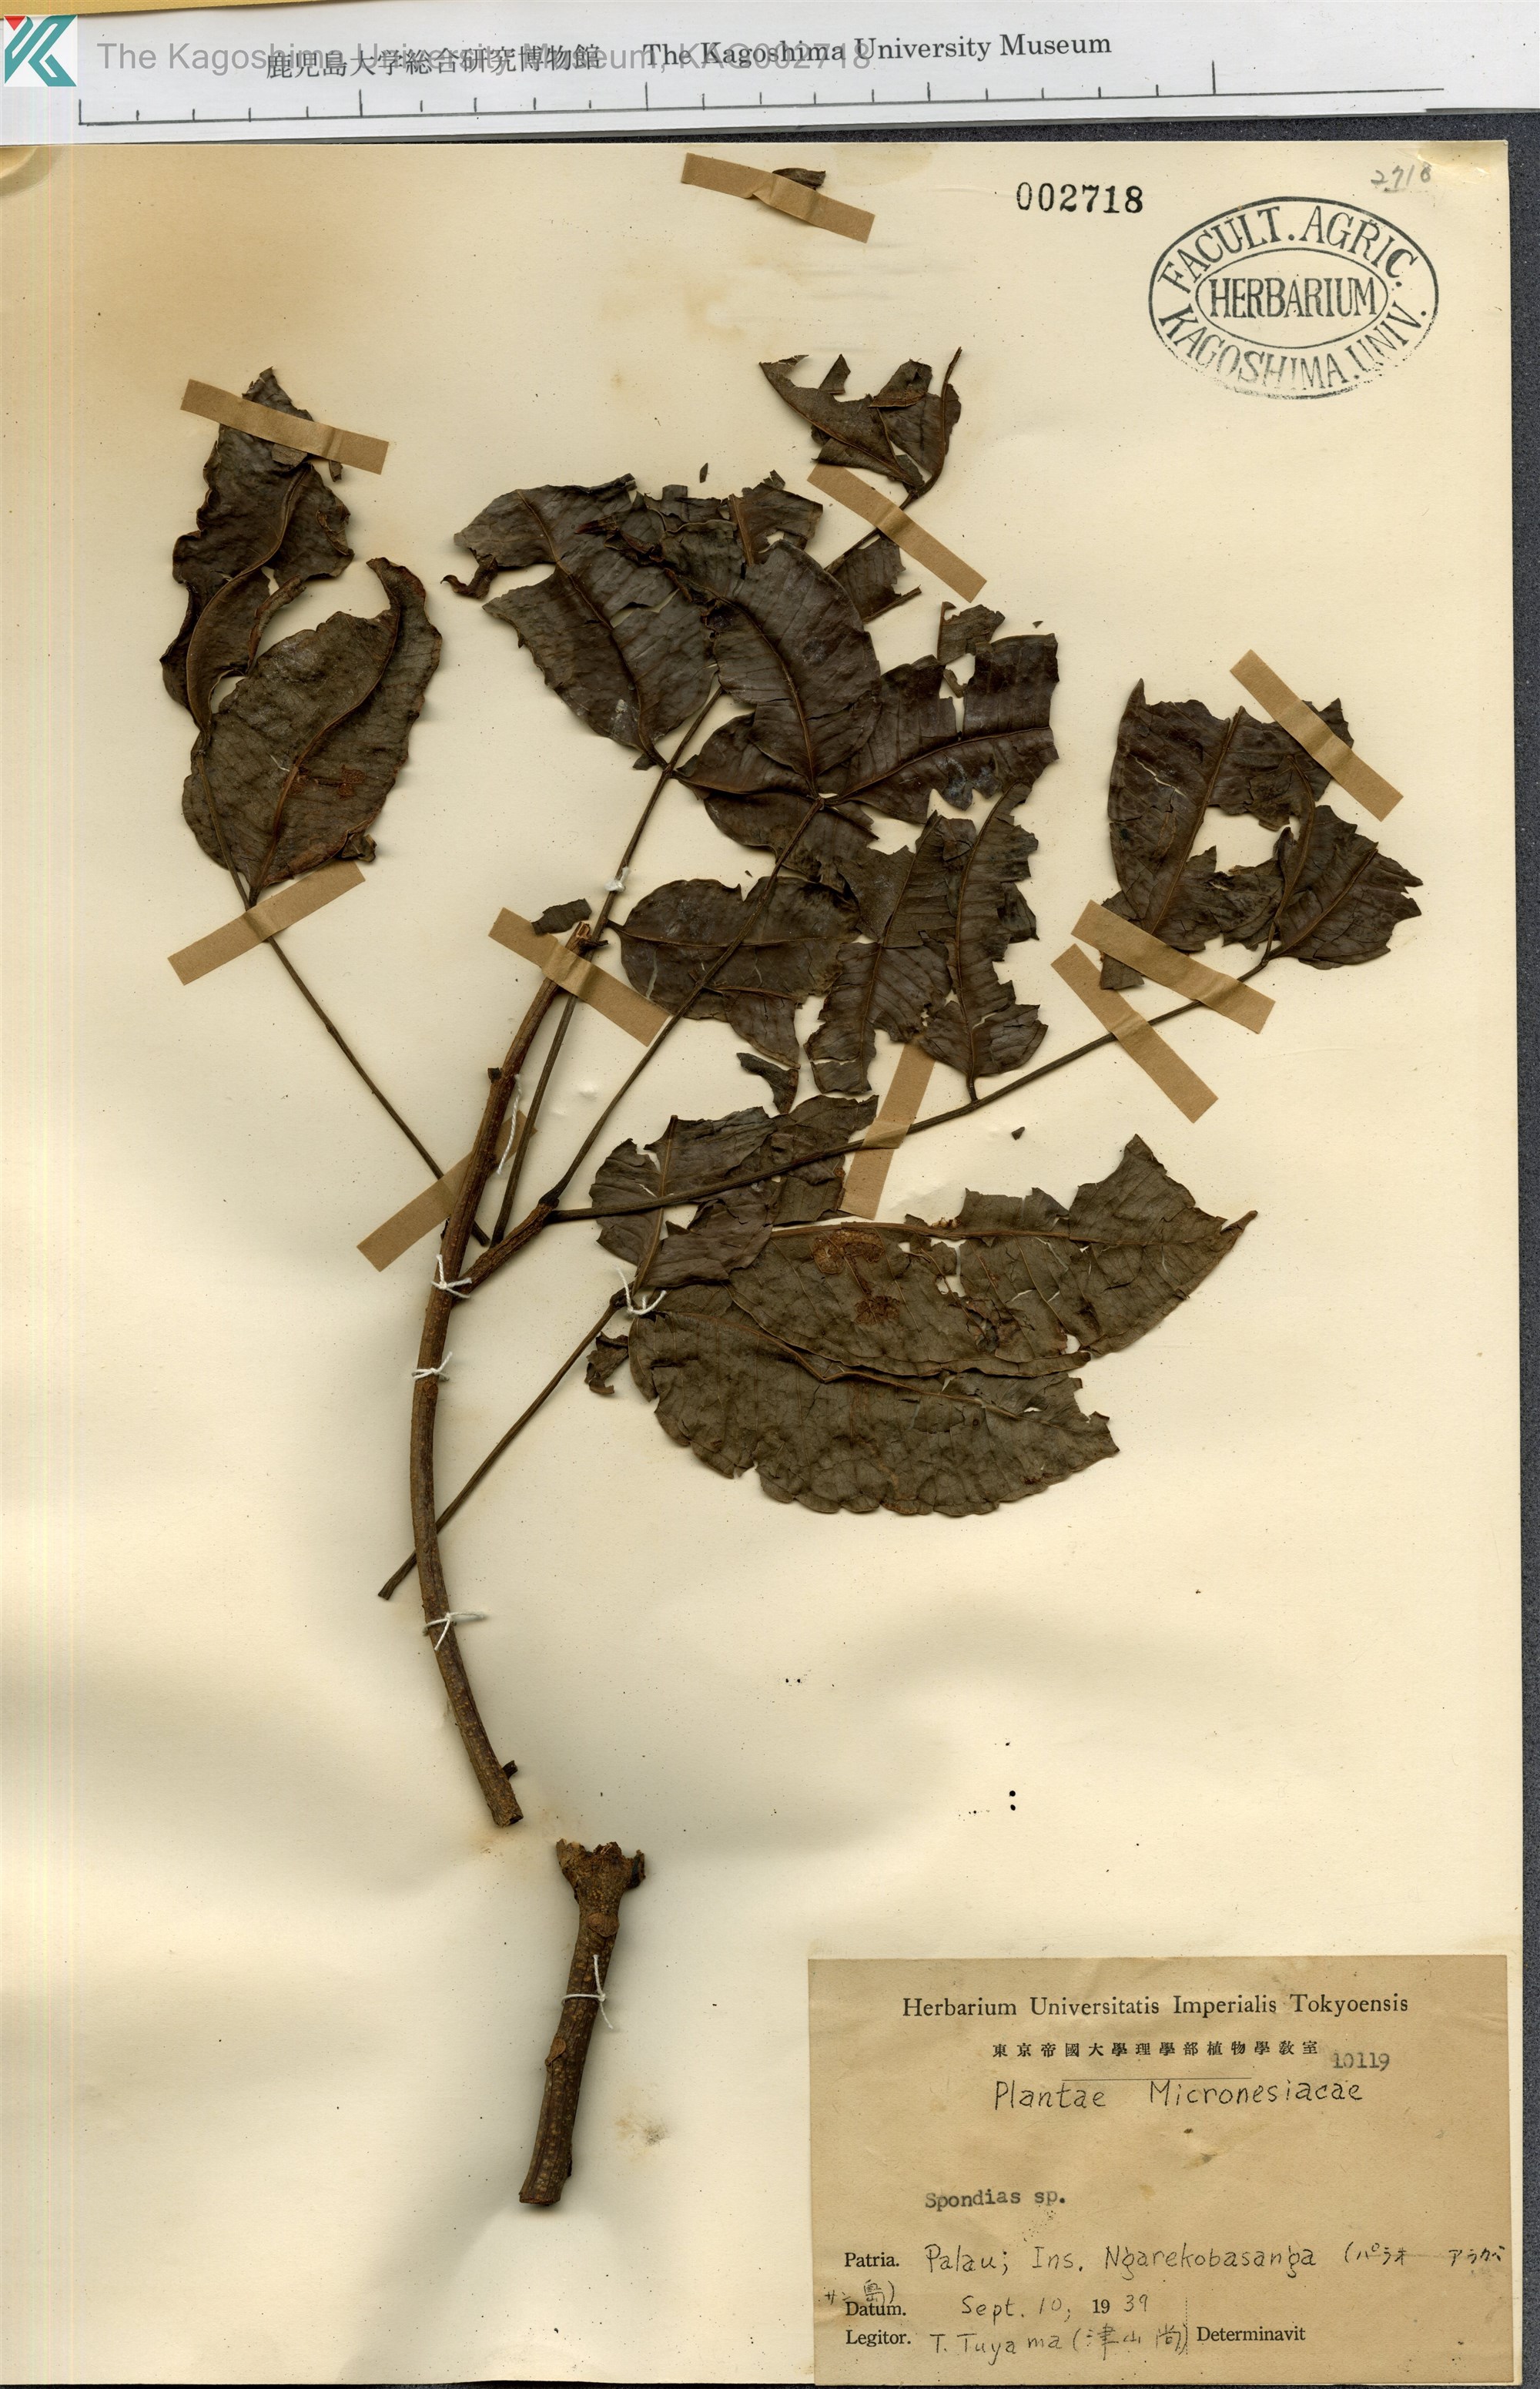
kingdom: Plantae
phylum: Tracheophyta
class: Magnoliopsida
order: Sapindales
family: Anacardiaceae
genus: Spondias
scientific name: Spondias
